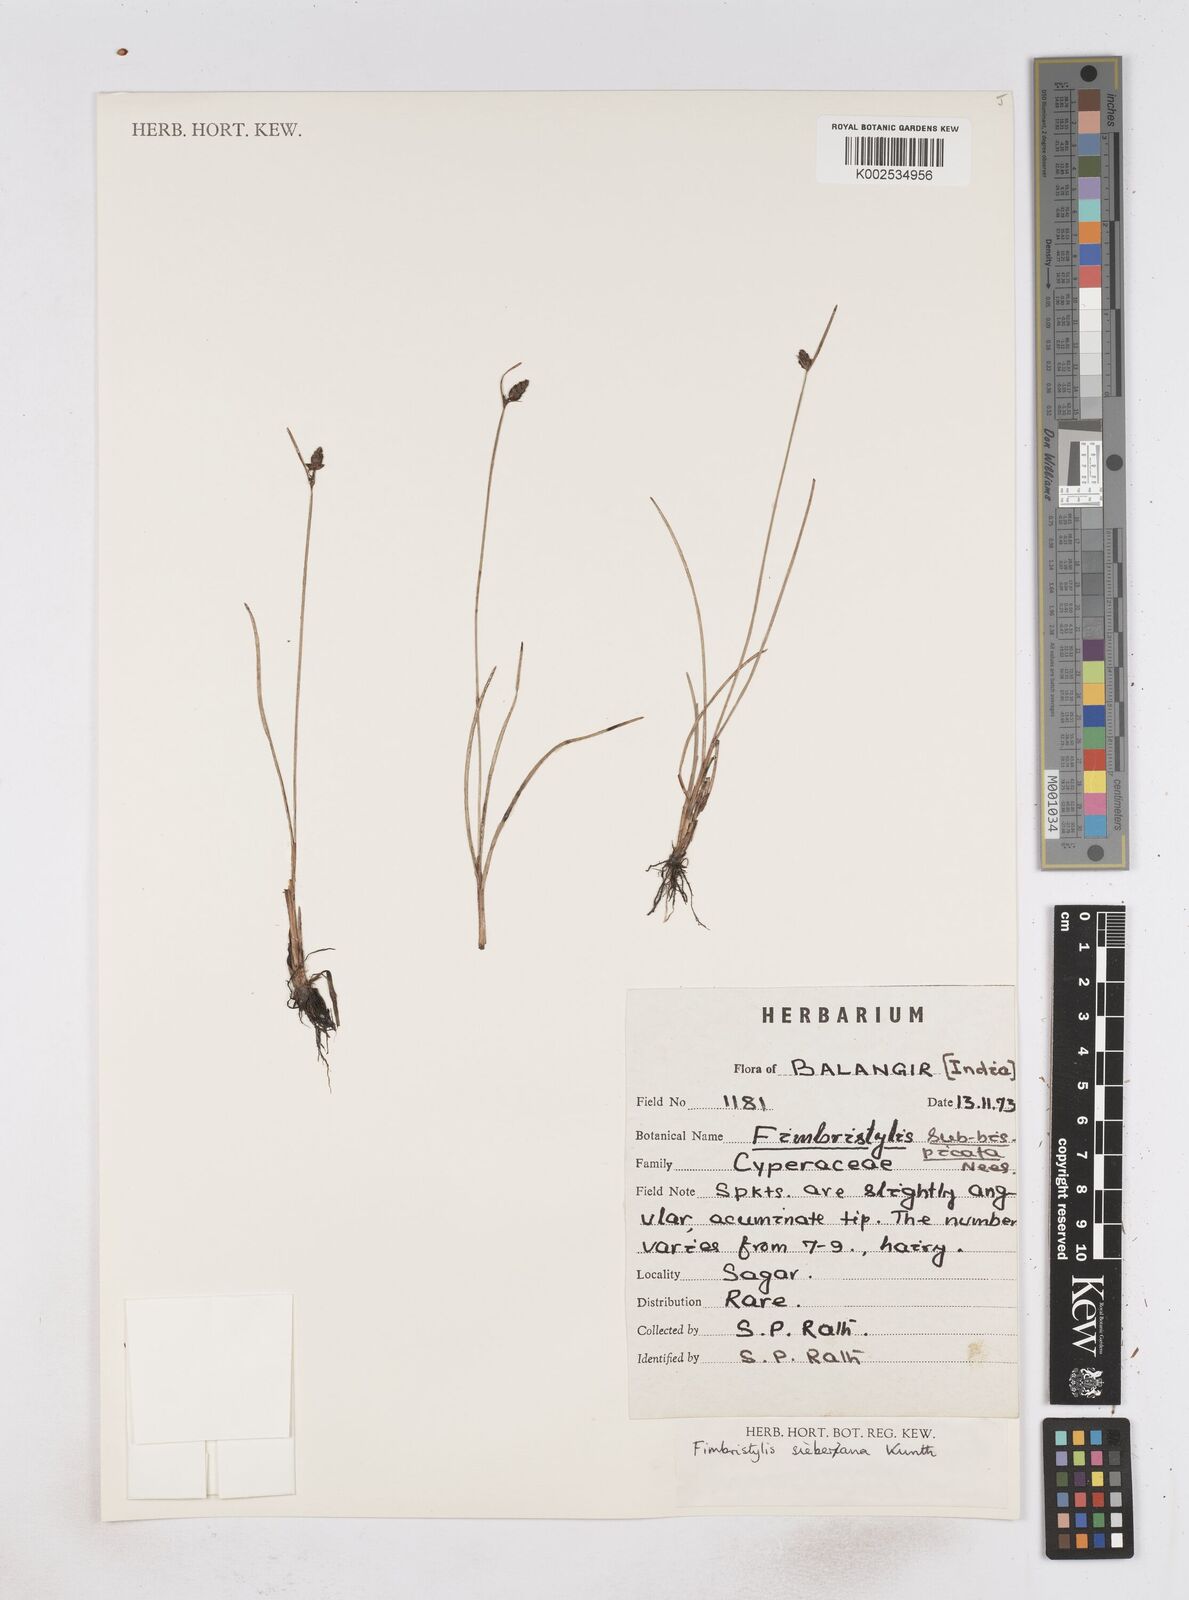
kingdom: Plantae
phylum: Tracheophyta
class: Liliopsida
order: Poales
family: Cyperaceae
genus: Fimbristylis
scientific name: Fimbristylis ferruginea
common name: West indian fimbry
